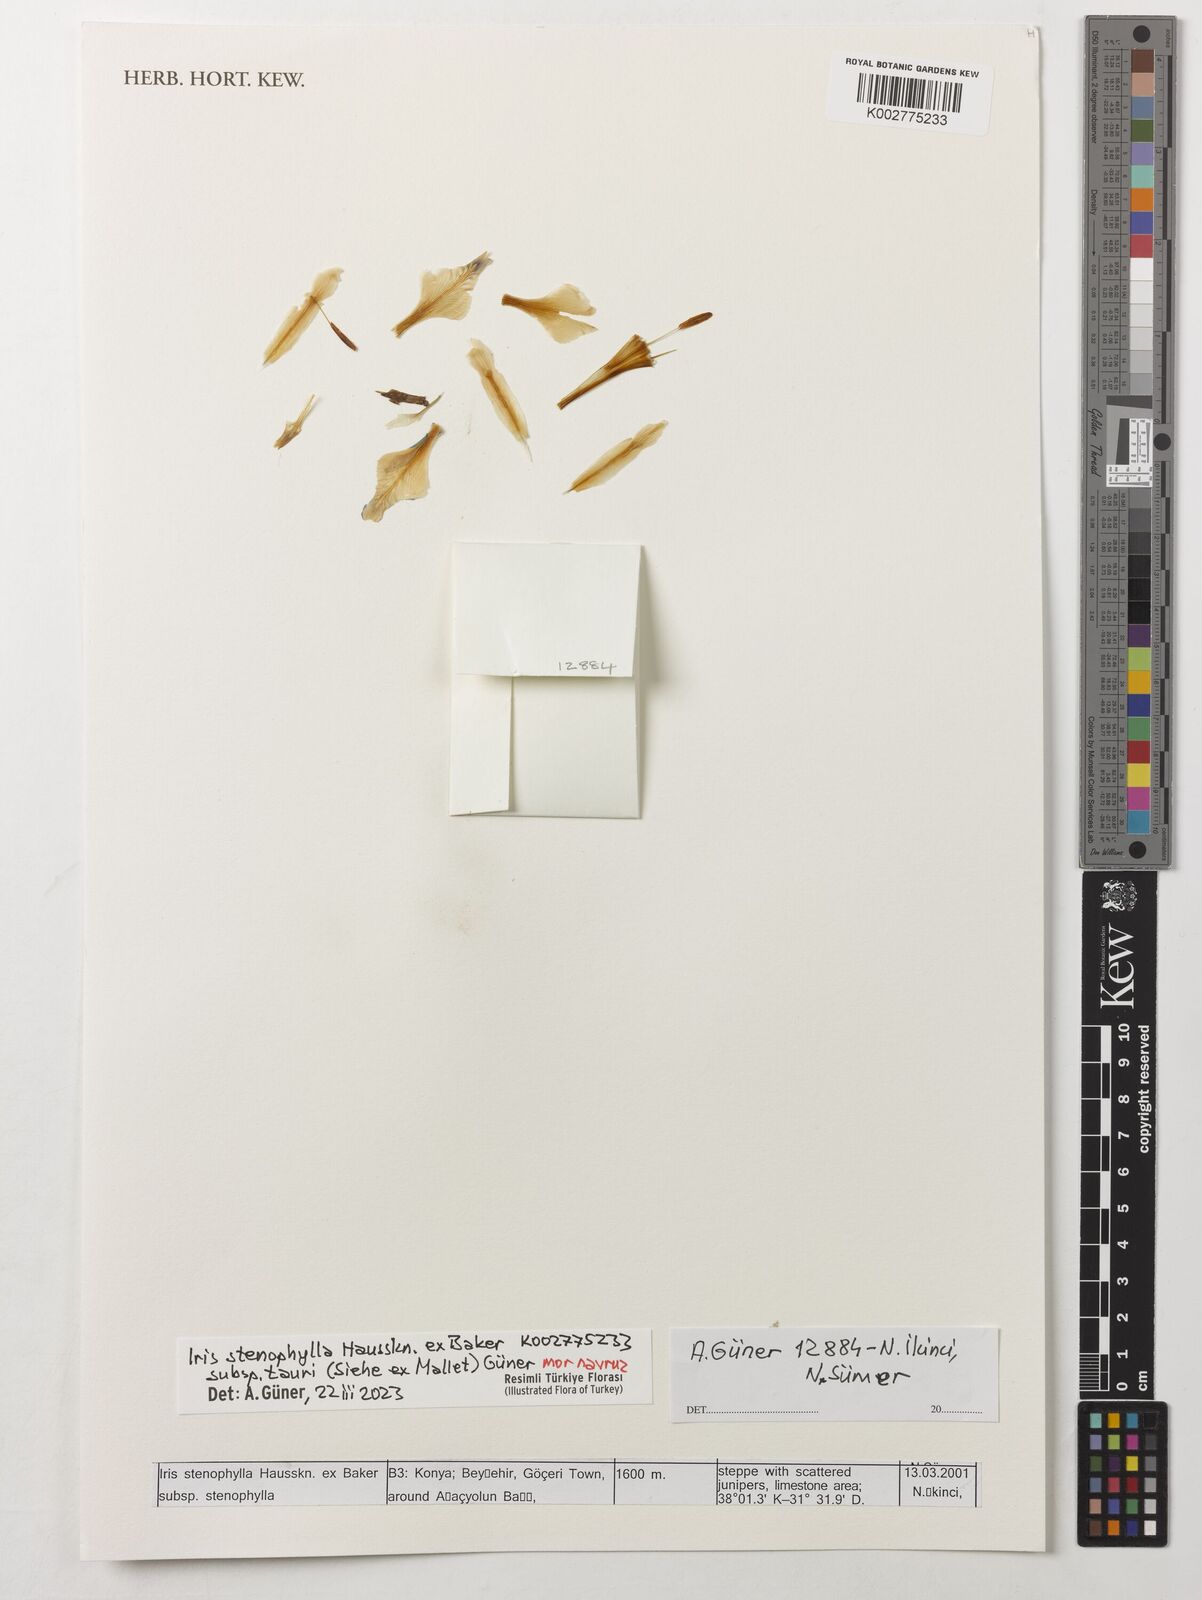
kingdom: Plantae
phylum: Tracheophyta
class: Liliopsida
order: Asparagales
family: Iridaceae
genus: Iris
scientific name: Iris stenophylla
